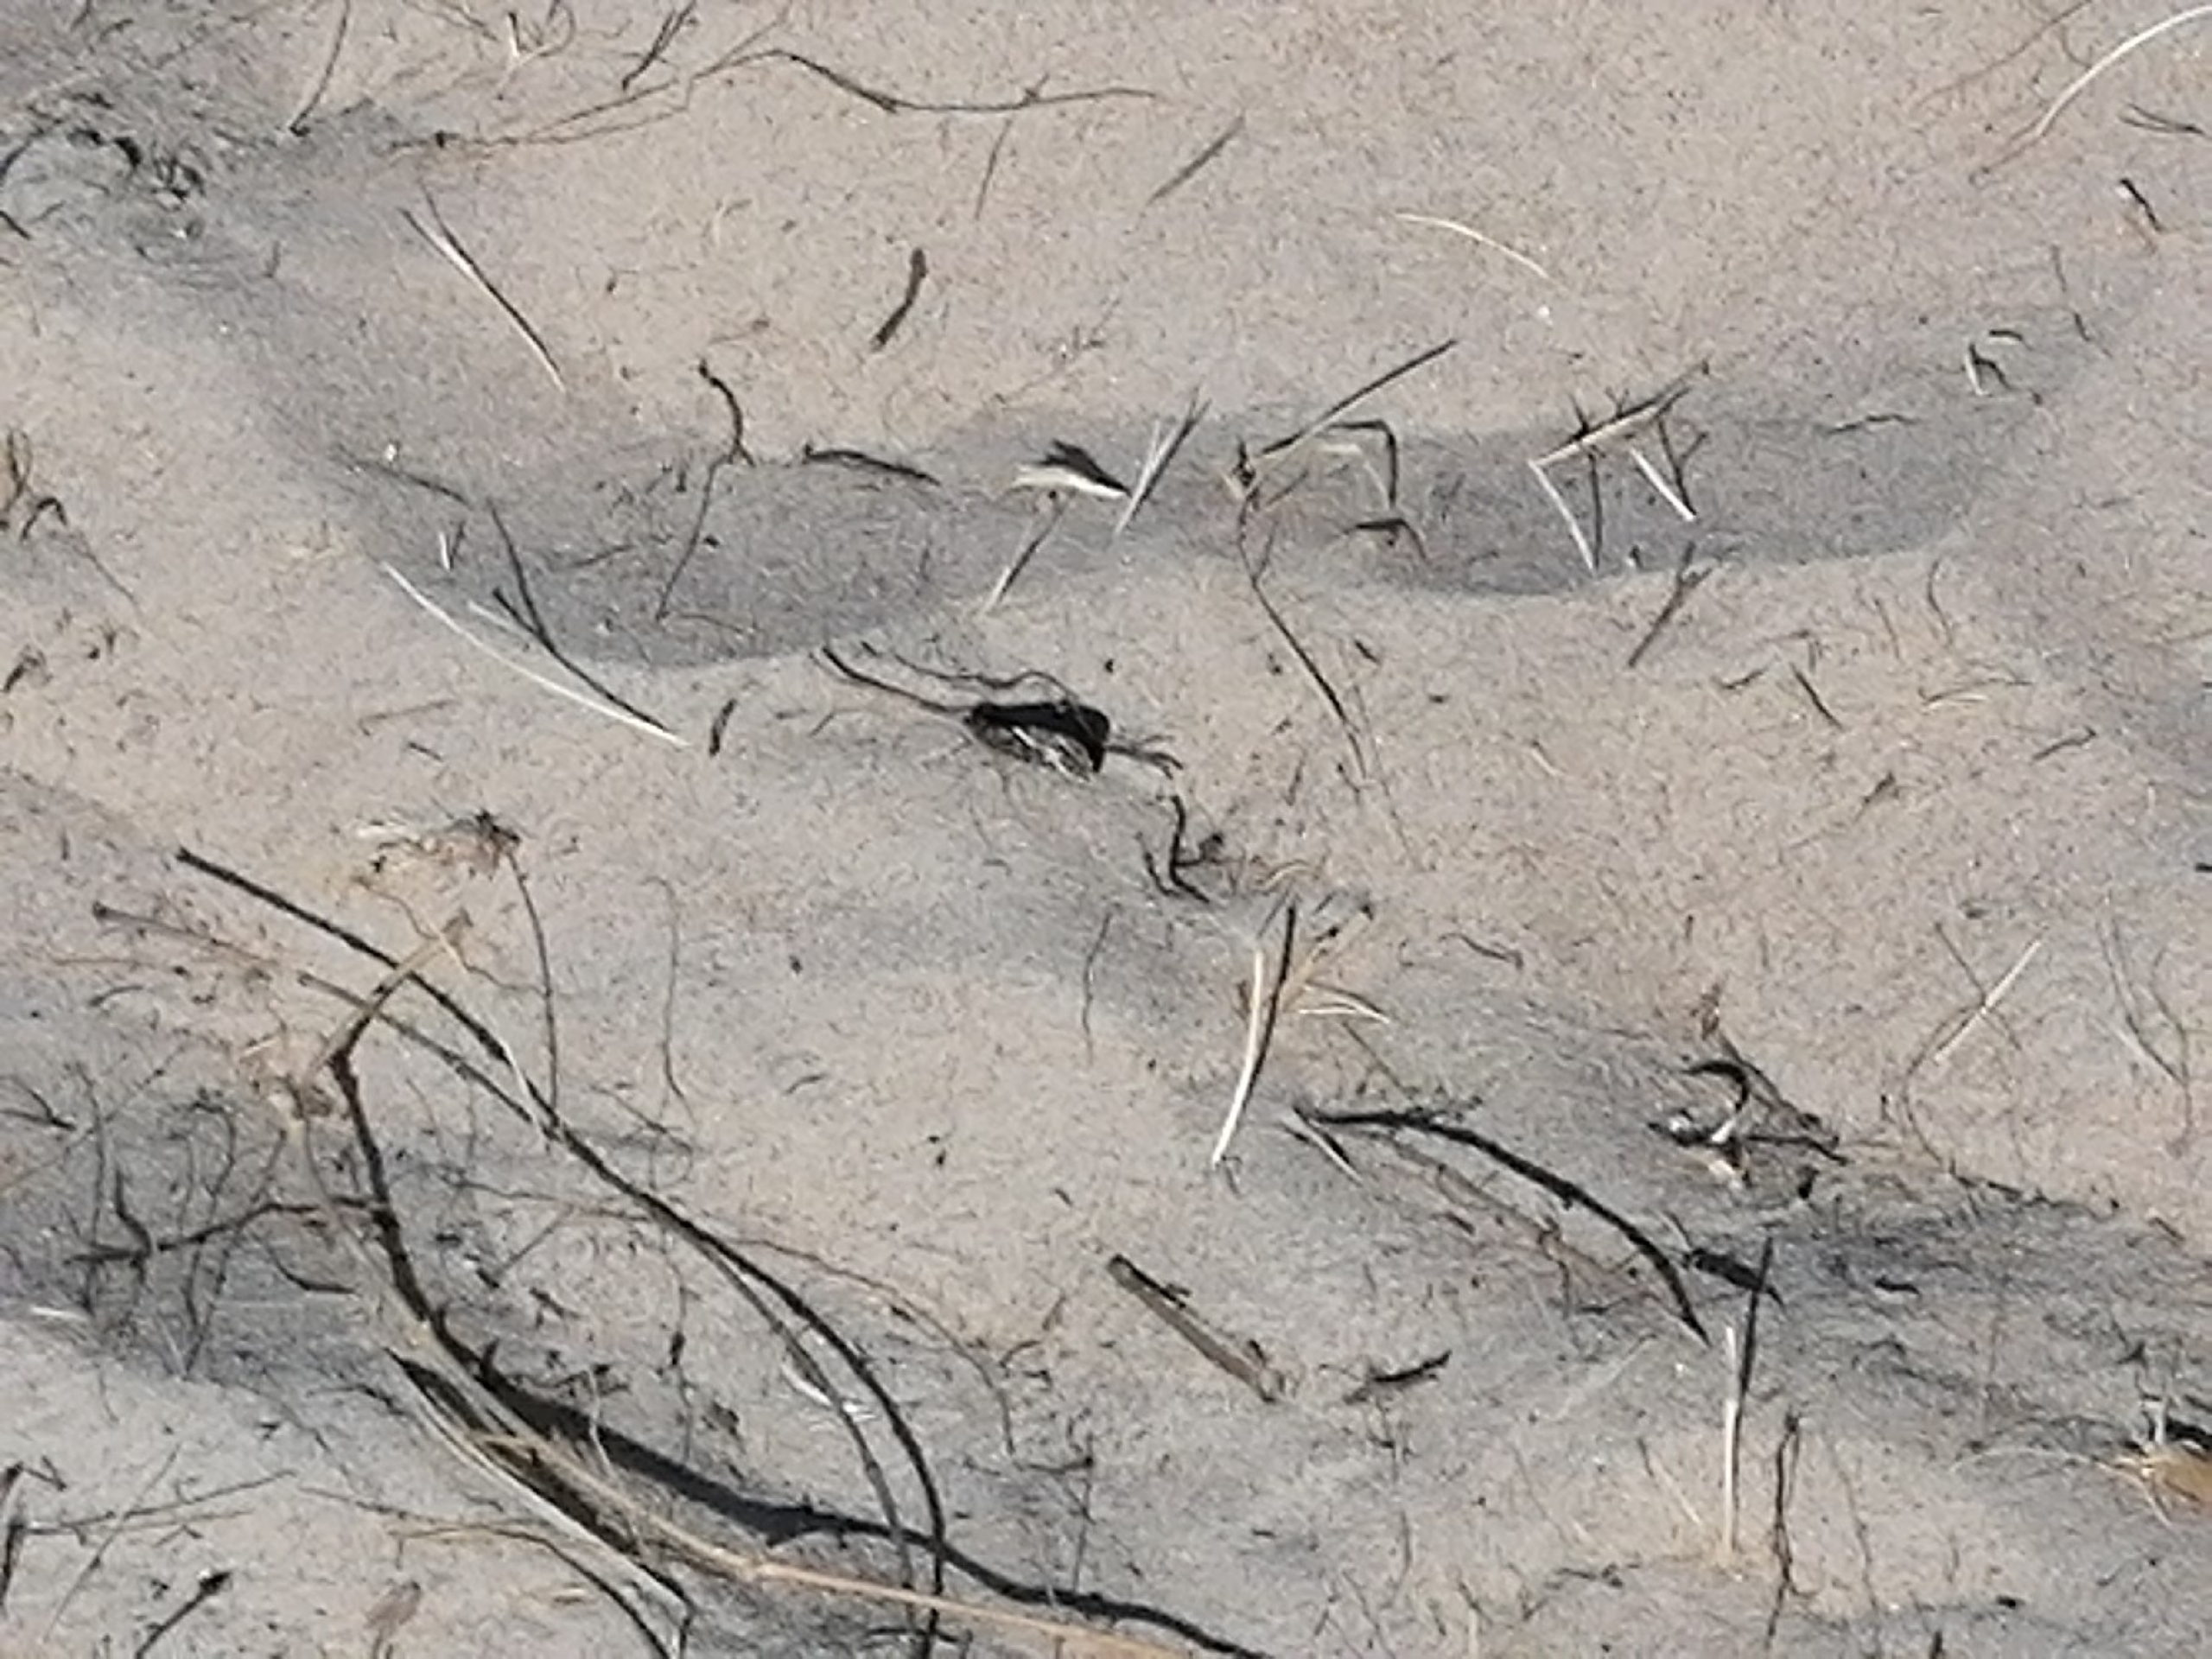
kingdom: Animalia
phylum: Arthropoda
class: Insecta
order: Lepidoptera
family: Nymphalidae
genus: Hipparchia
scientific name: Hipparchia semele
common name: Sandrandøje
